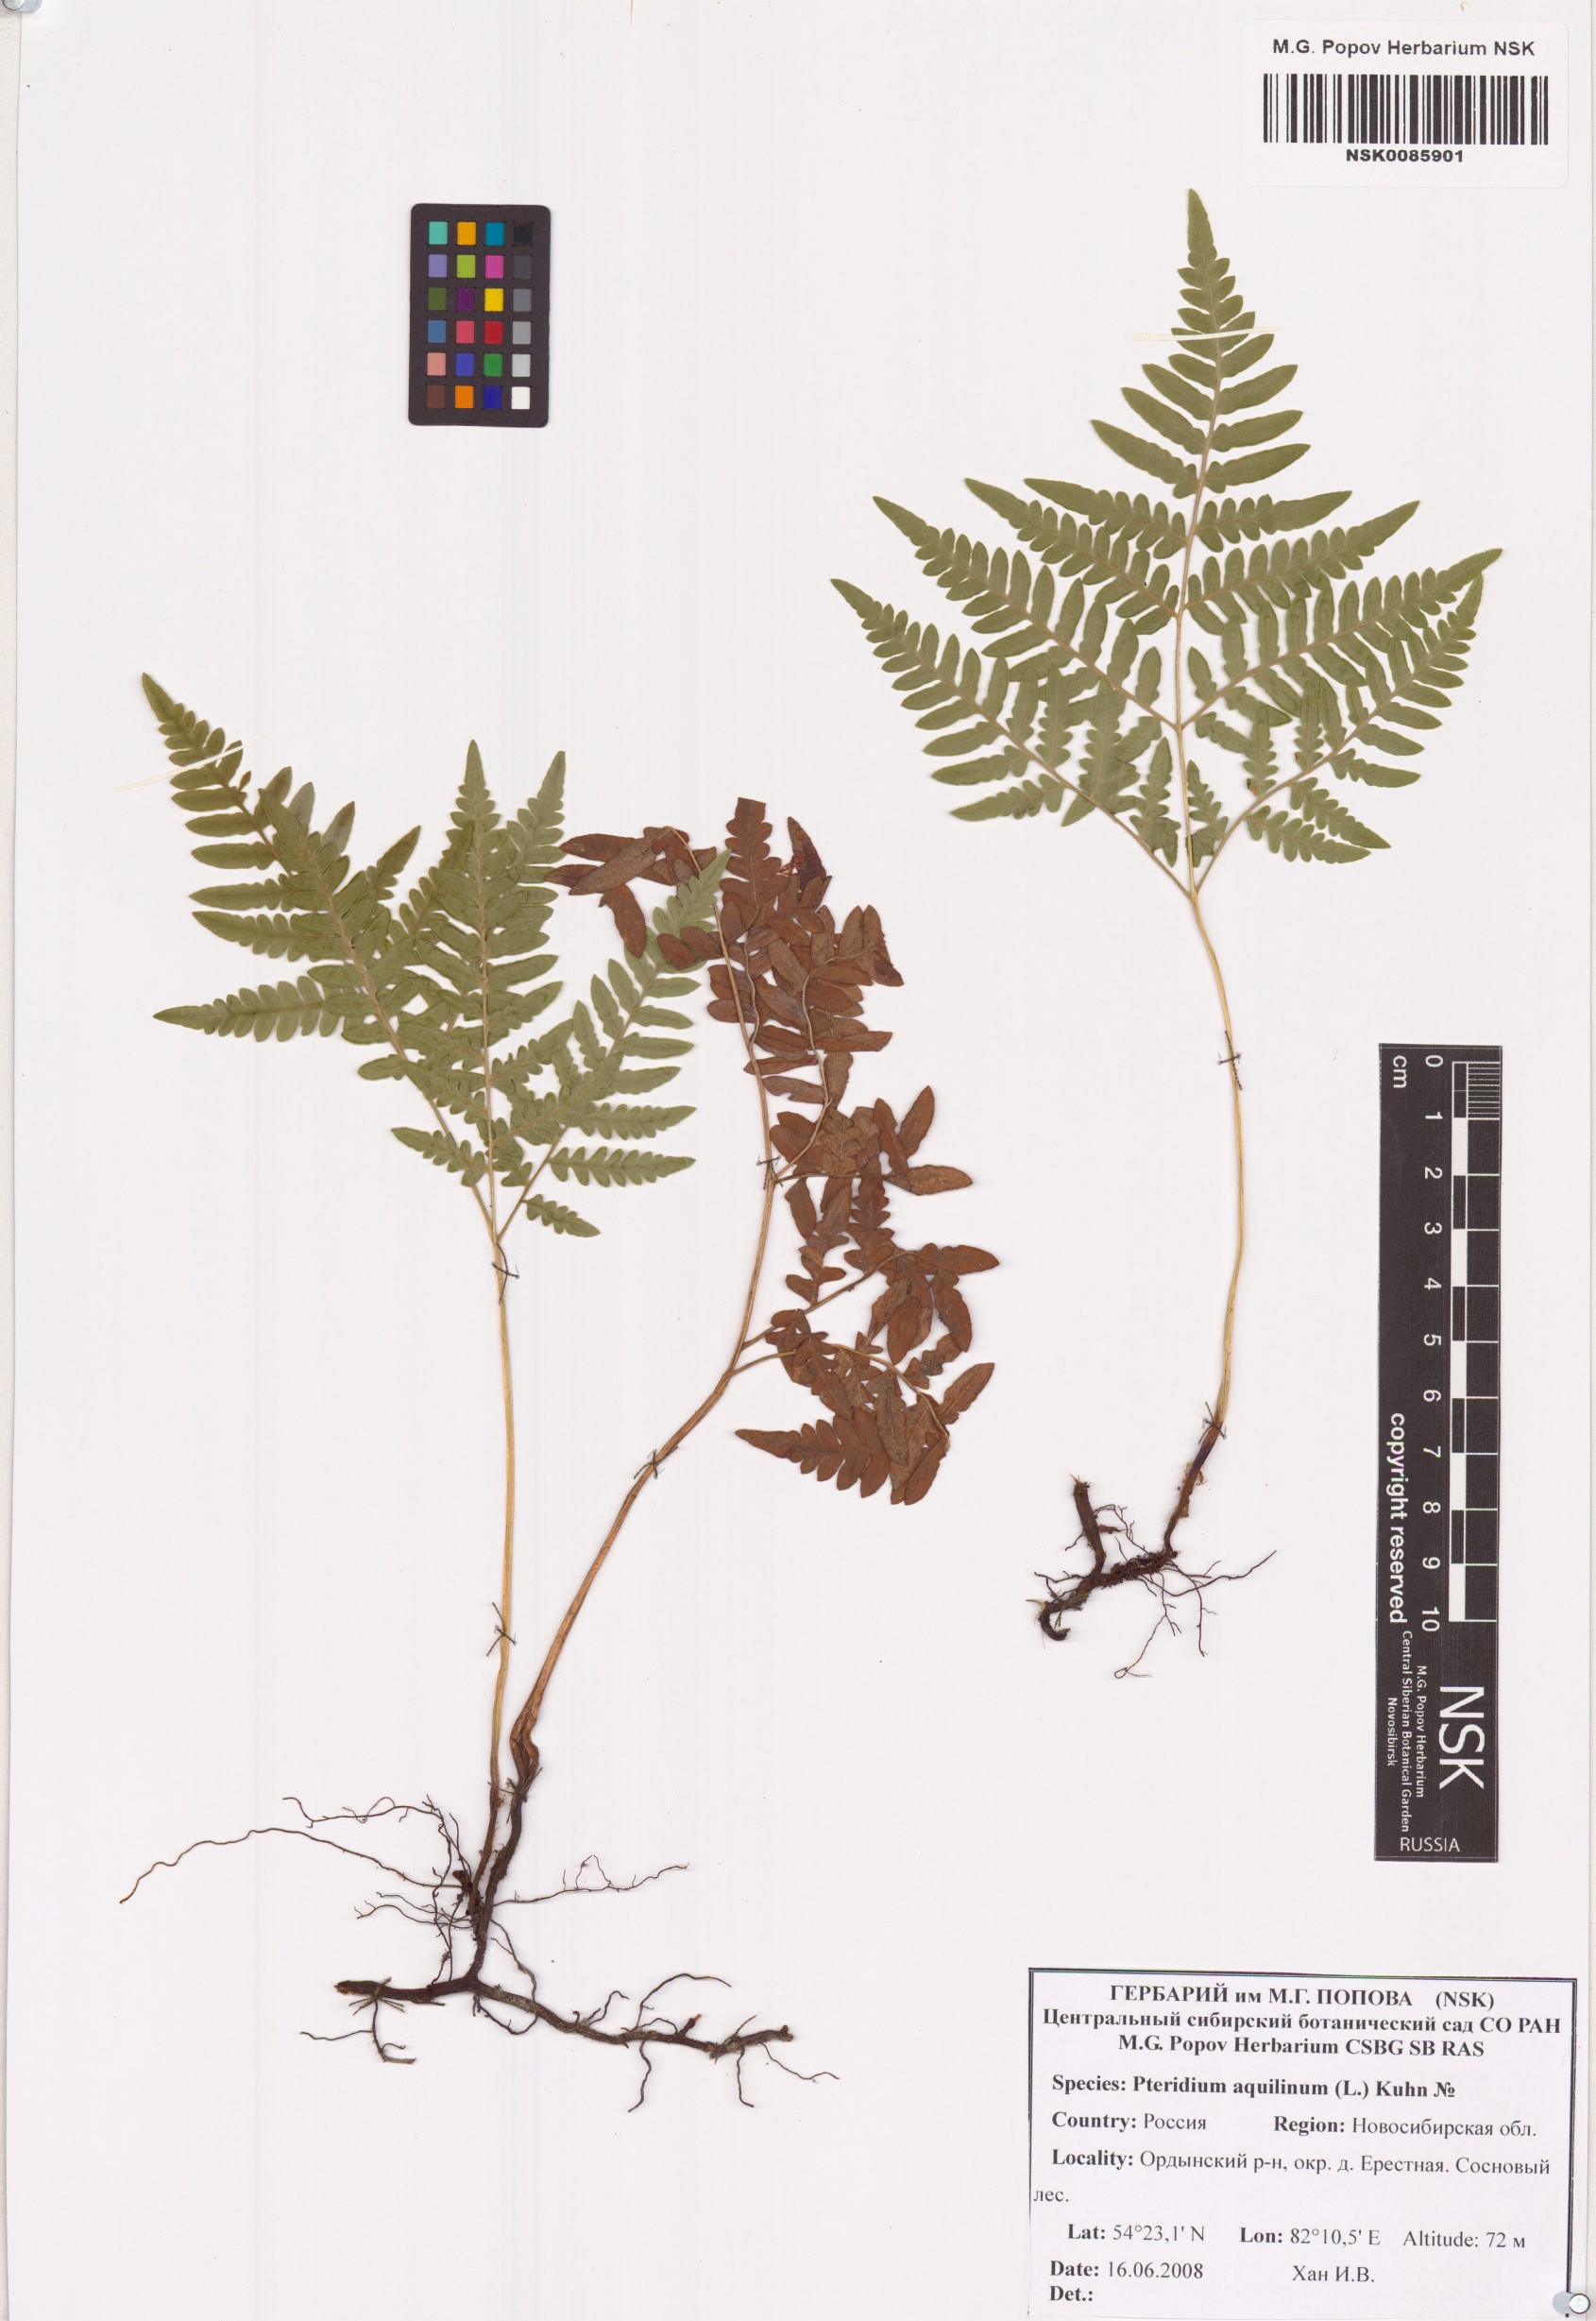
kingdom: Plantae
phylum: Tracheophyta
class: Polypodiopsida
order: Polypodiales
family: Dennstaedtiaceae
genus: Pteridium
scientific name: Pteridium aquilinum
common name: Bracken
